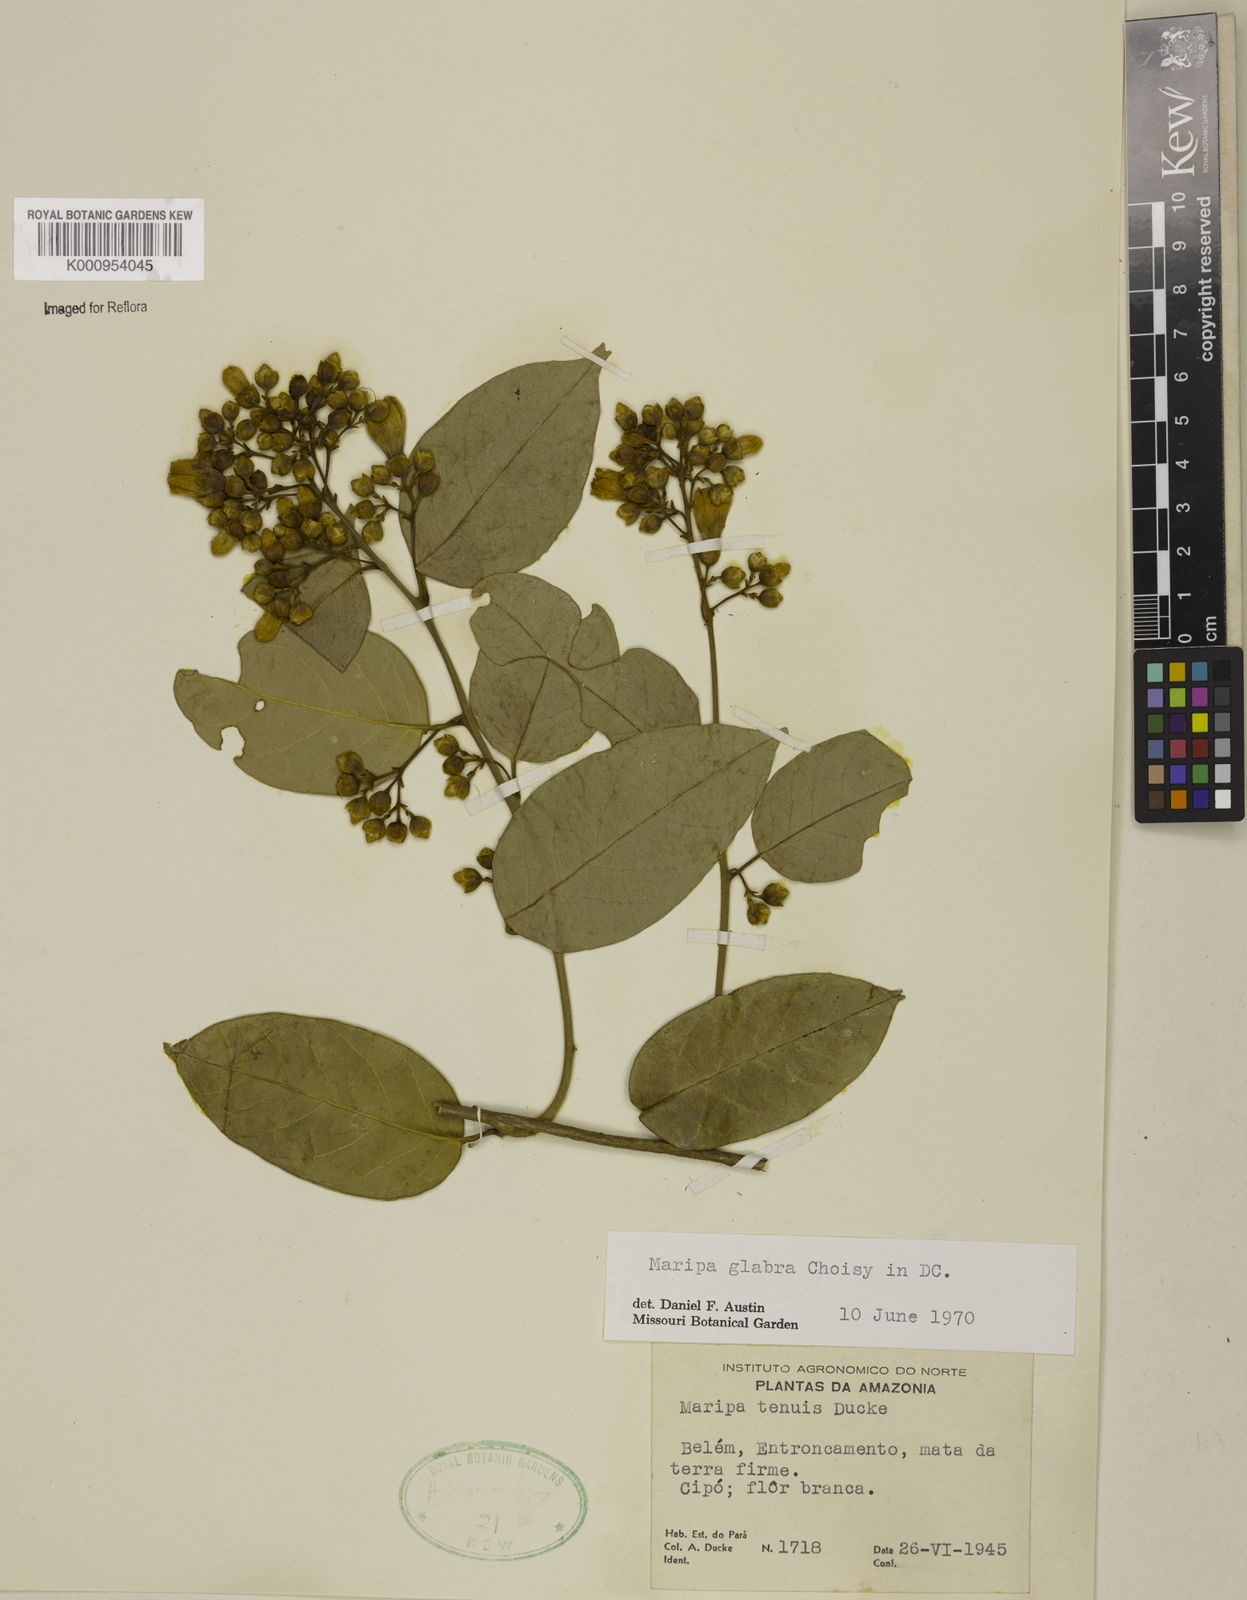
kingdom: Plantae
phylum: Tracheophyta
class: Magnoliopsida
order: Solanales
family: Convolvulaceae
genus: Maripa
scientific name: Maripa glabra
